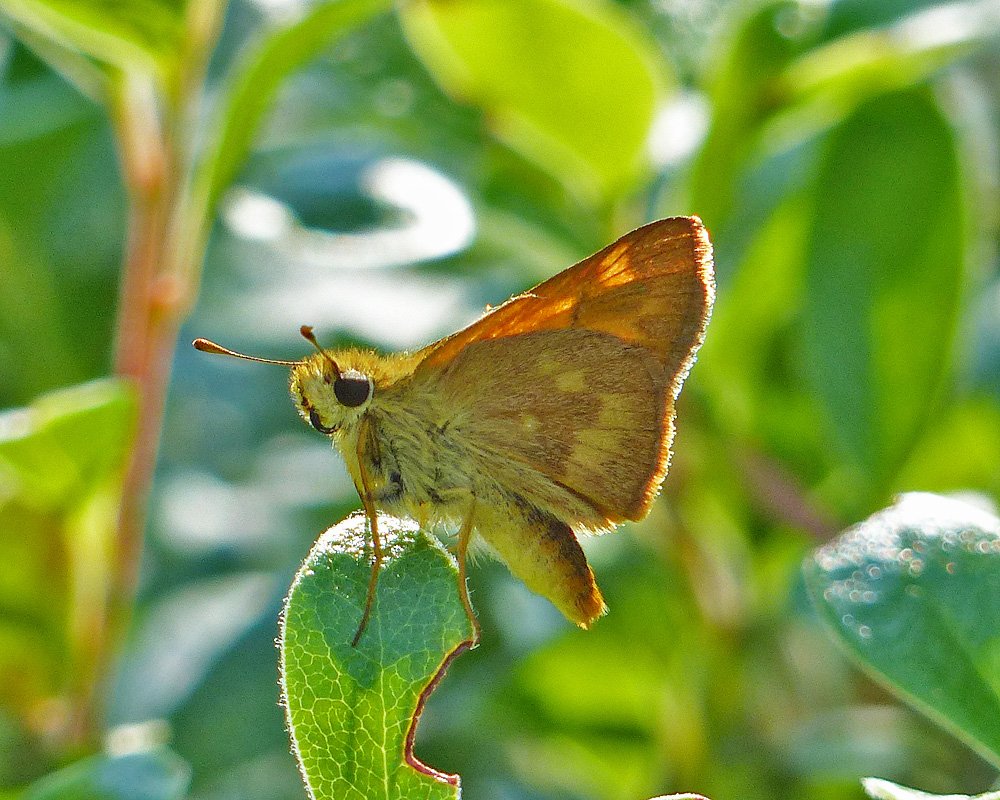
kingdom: Animalia
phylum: Arthropoda
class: Insecta
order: Lepidoptera
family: Hesperiidae
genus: Ochlodes
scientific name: Ochlodes sylvanoides
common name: Woodland Skipper
